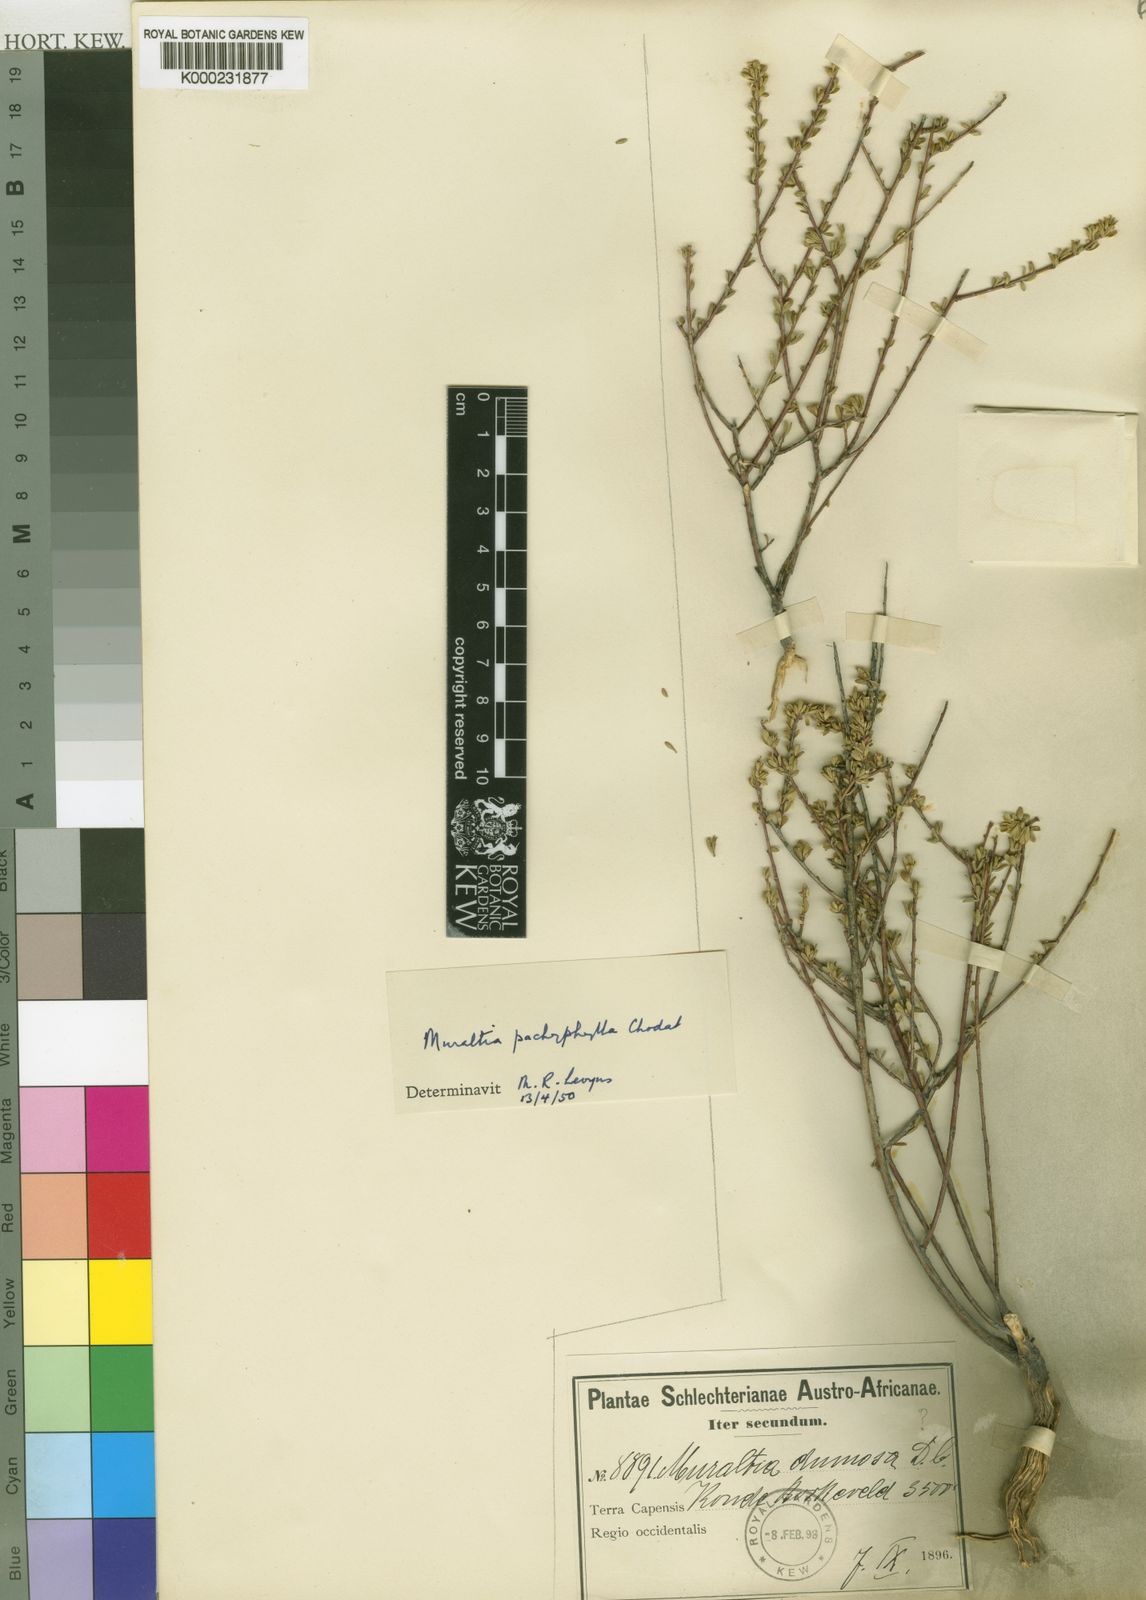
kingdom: Plantae
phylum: Tracheophyta
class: Magnoliopsida
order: Fabales
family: Polygalaceae
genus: Muraltia
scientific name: Muraltia rhamnoides
